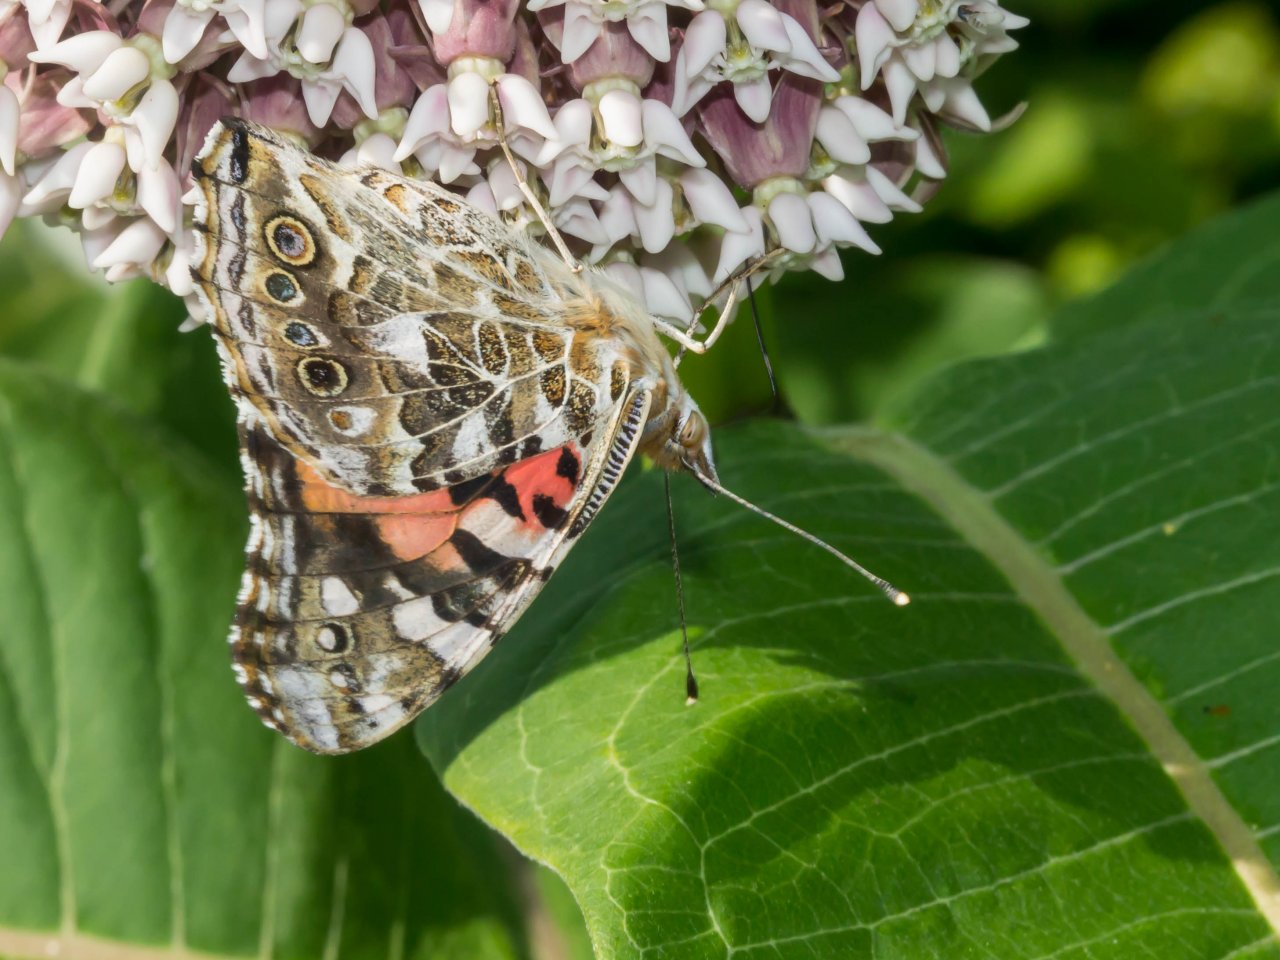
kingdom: Animalia
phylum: Arthropoda
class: Insecta
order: Lepidoptera
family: Nymphalidae
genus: Vanessa
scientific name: Vanessa cardui
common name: Painted Lady
